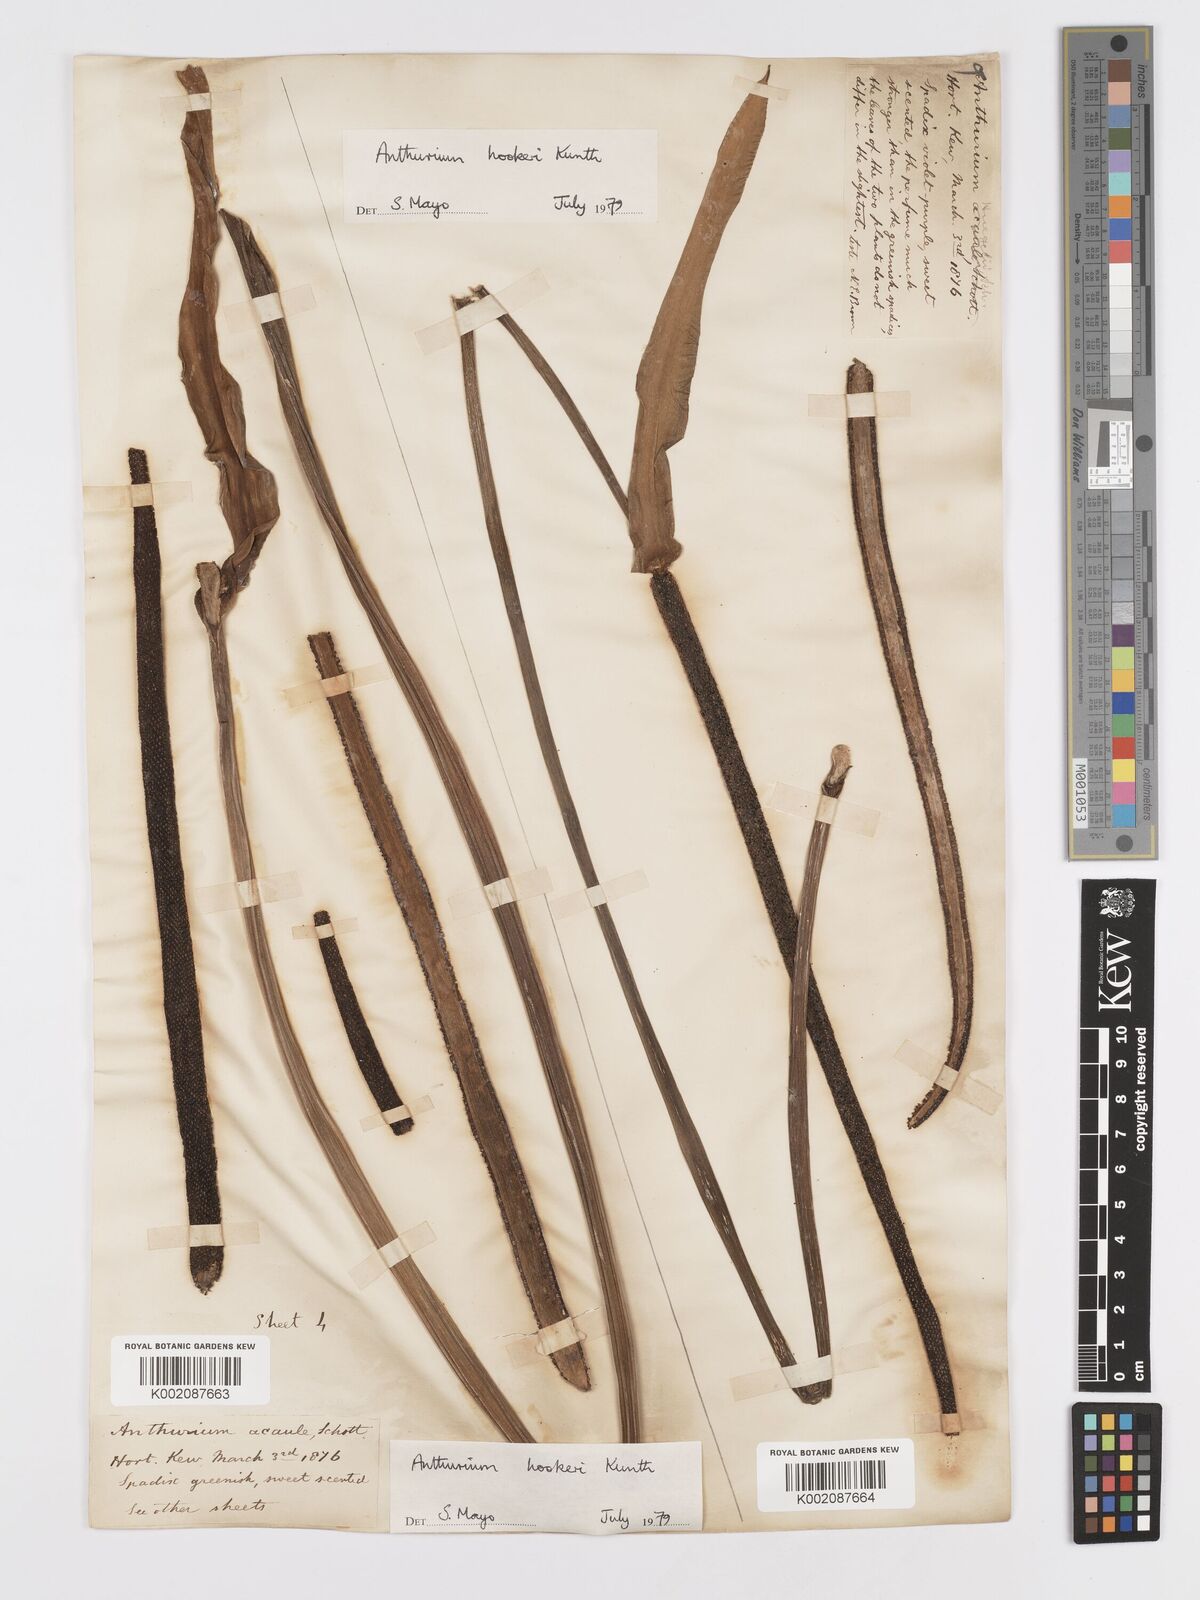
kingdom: Plantae
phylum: Tracheophyta
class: Liliopsida
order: Alismatales
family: Araceae
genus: Anthurium
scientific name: Anthurium hookeri
